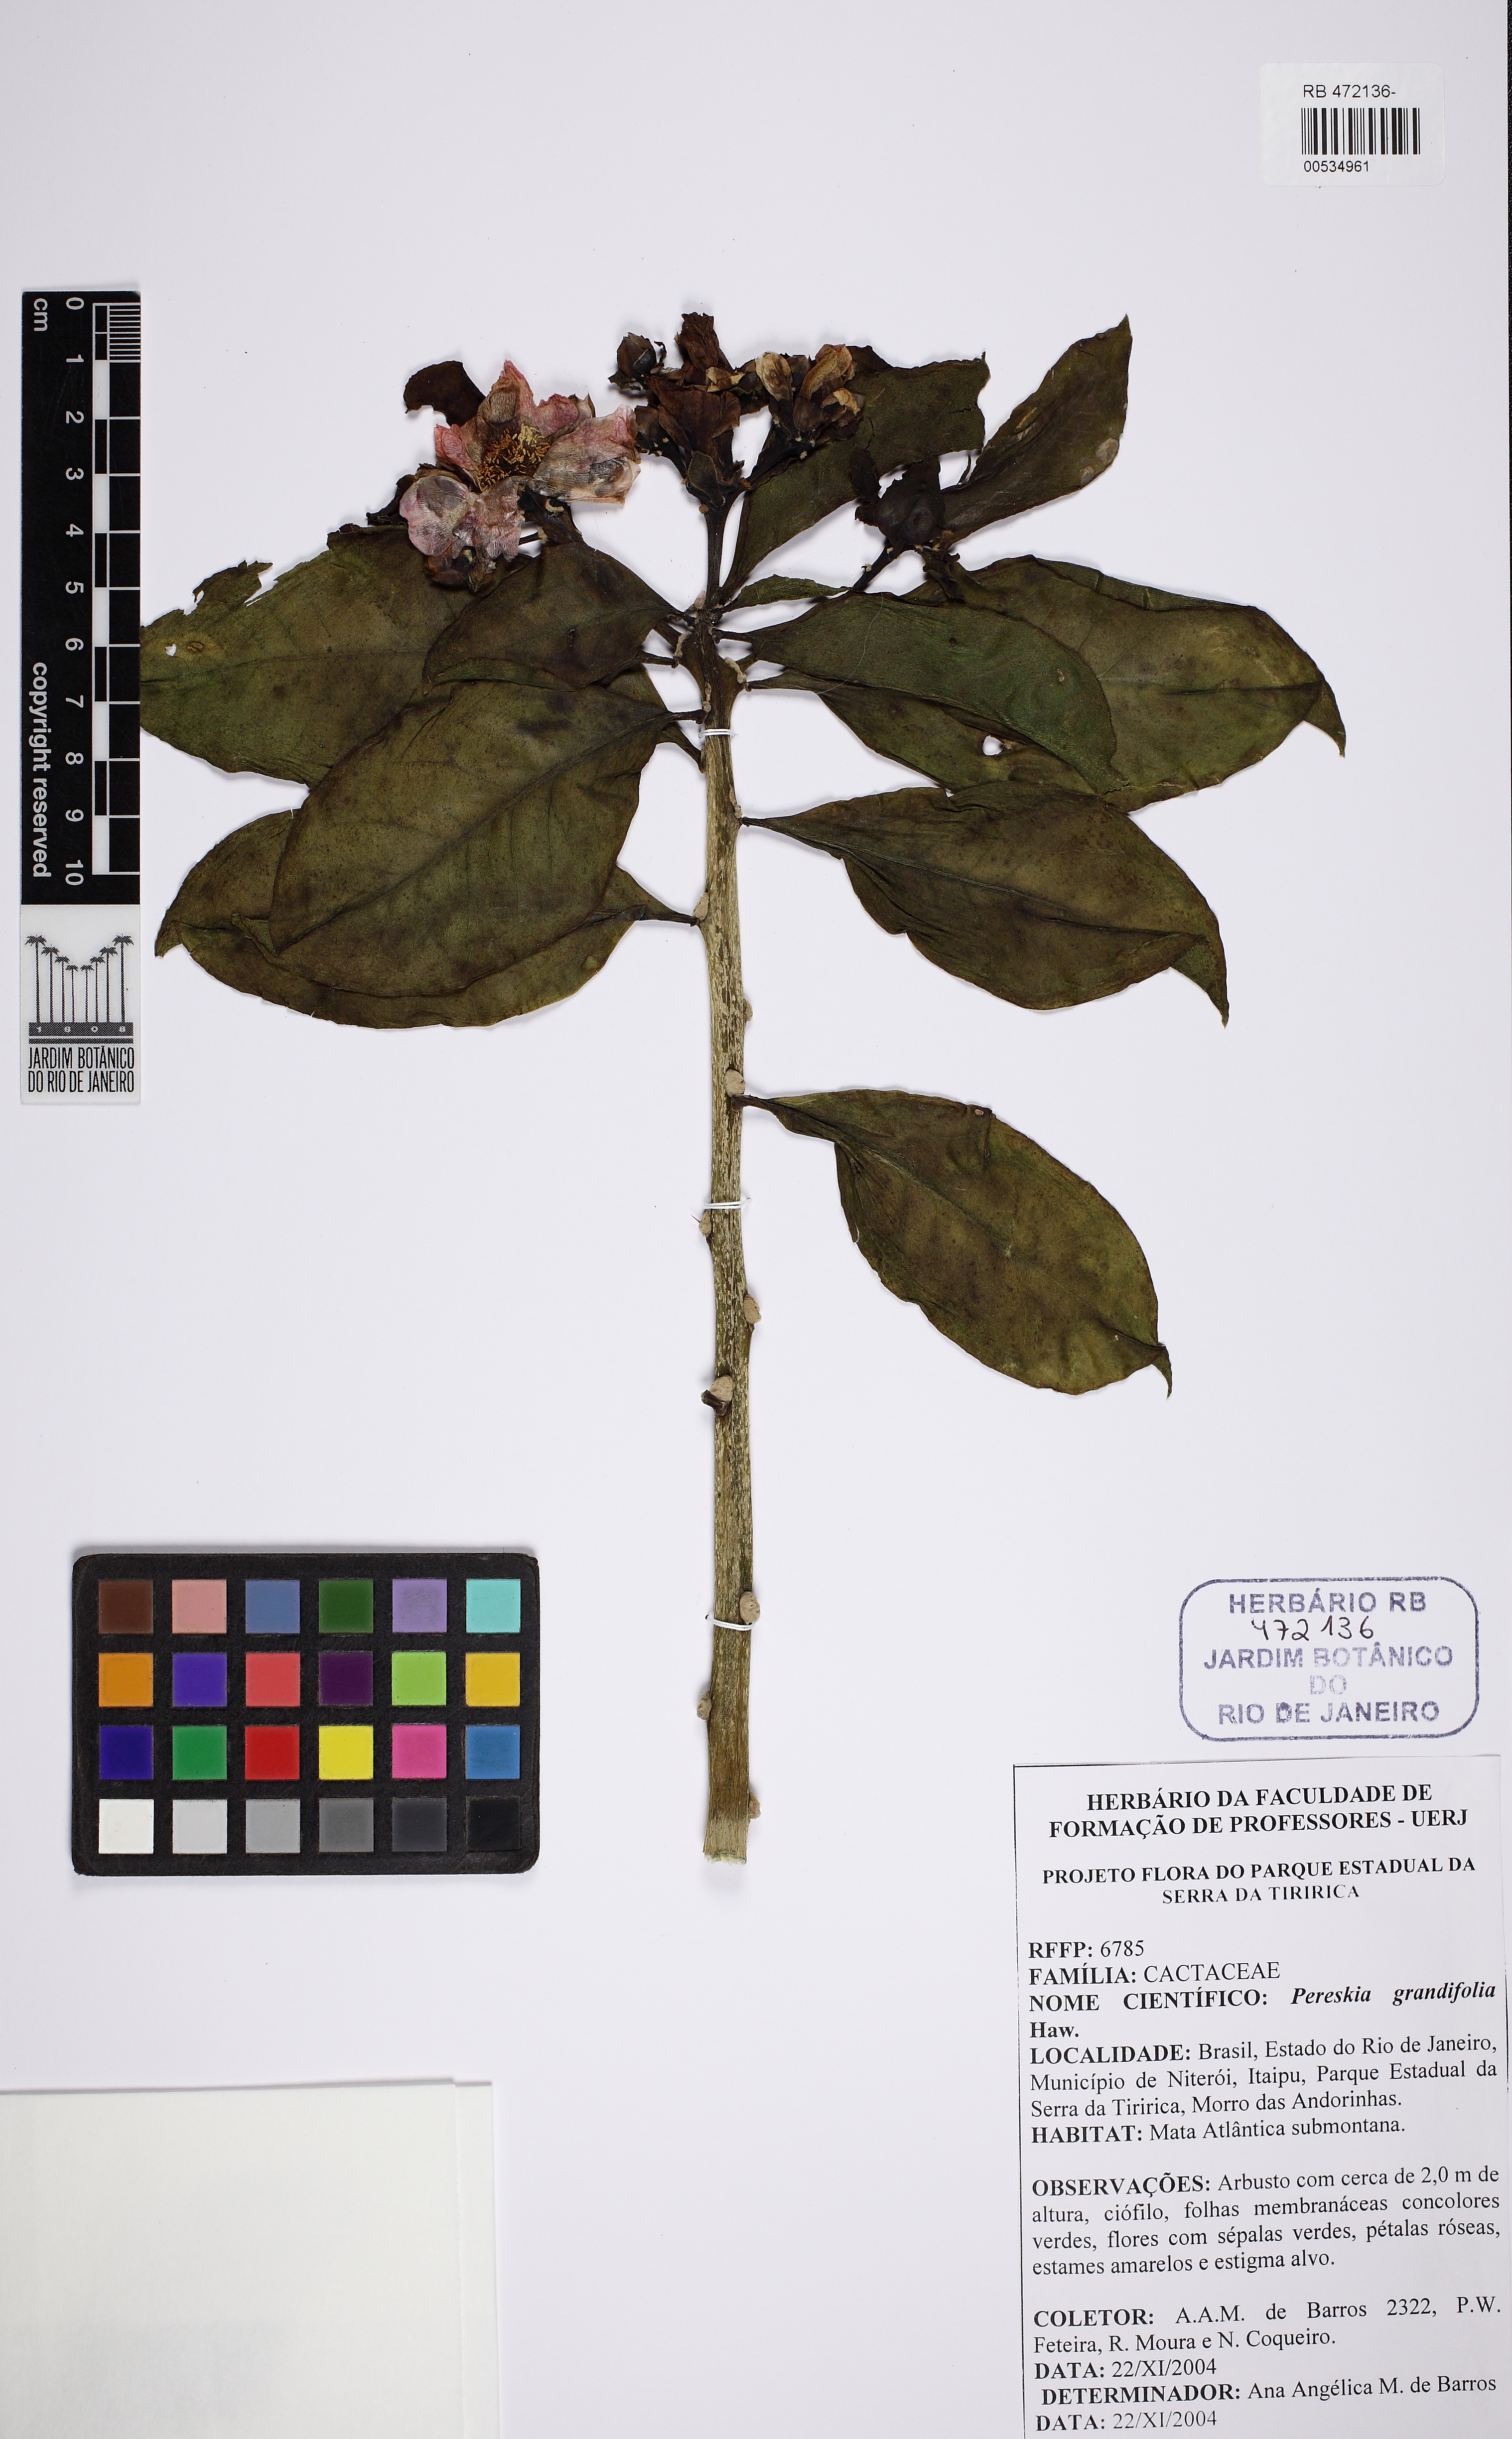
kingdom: Plantae
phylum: Tracheophyta
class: Magnoliopsida
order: Caryophyllales
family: Cactaceae
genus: Pereskia
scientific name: Pereskia grandifolia
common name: Rose cactus
